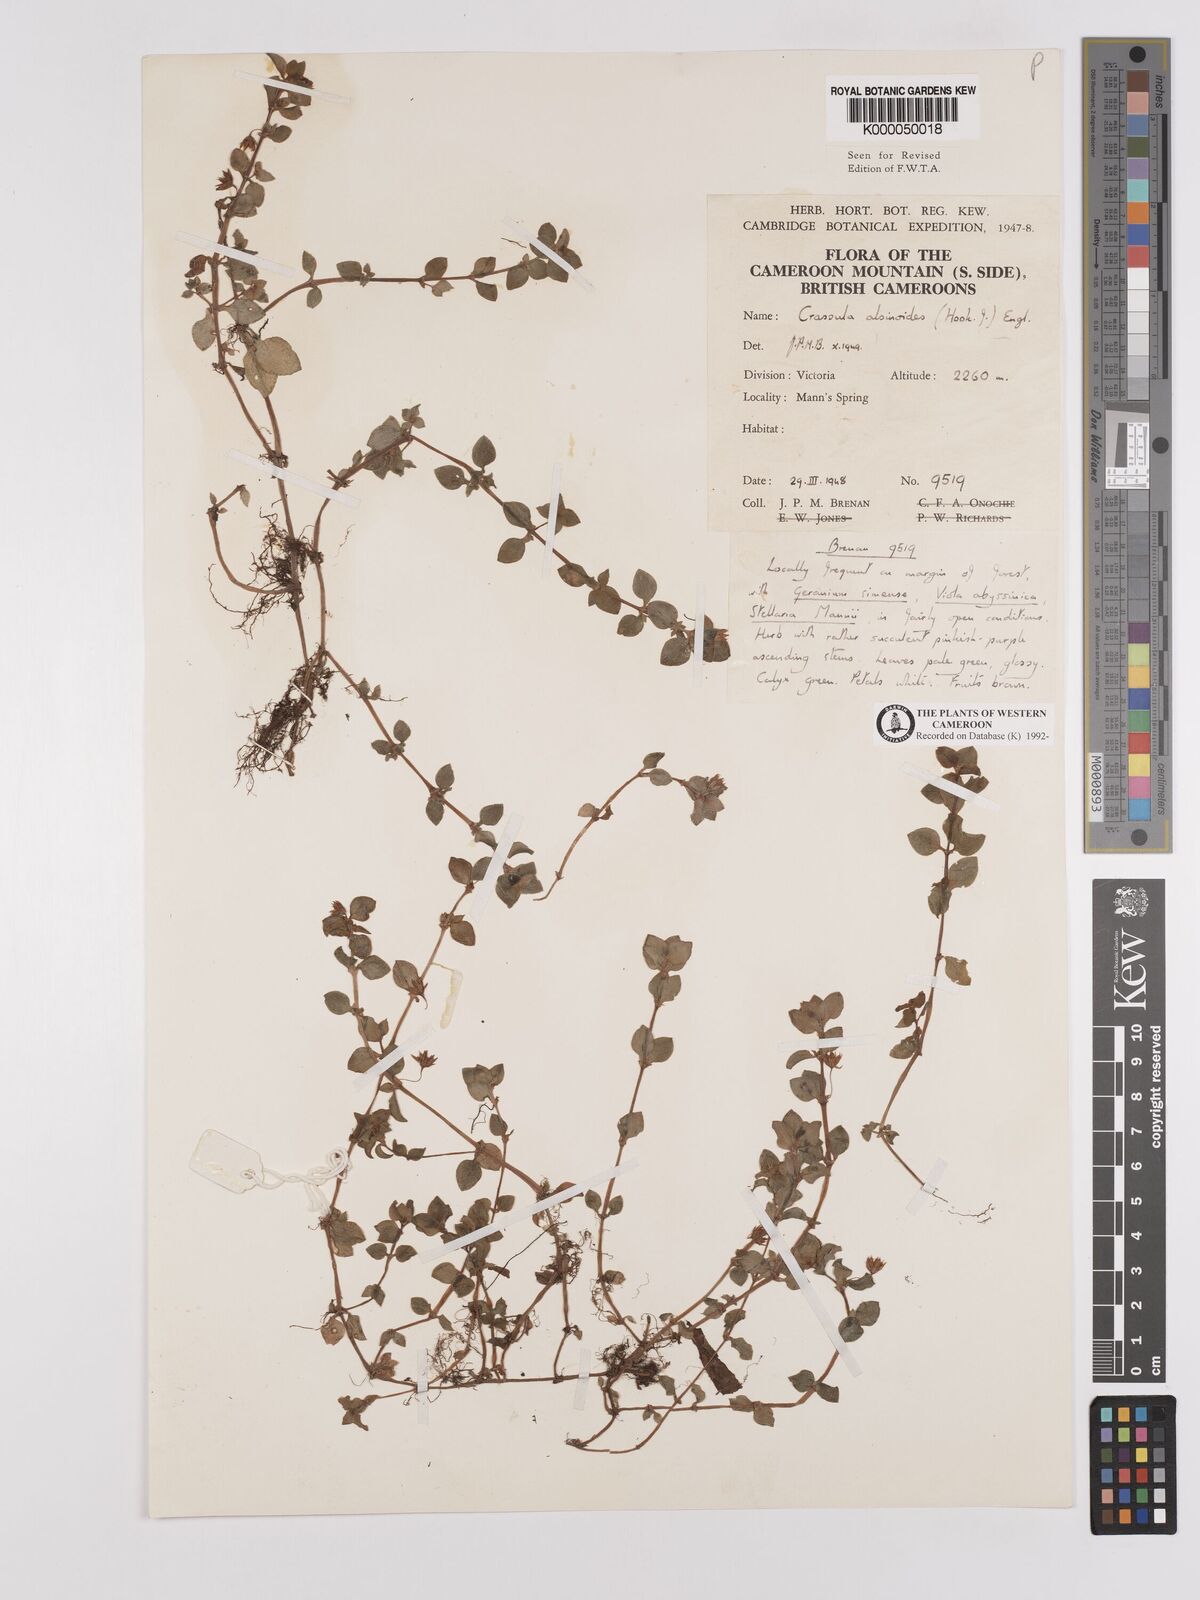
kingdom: Plantae
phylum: Tracheophyta
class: Magnoliopsida
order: Saxifragales
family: Crassulaceae
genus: Crassula
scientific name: Crassula alsinoides
